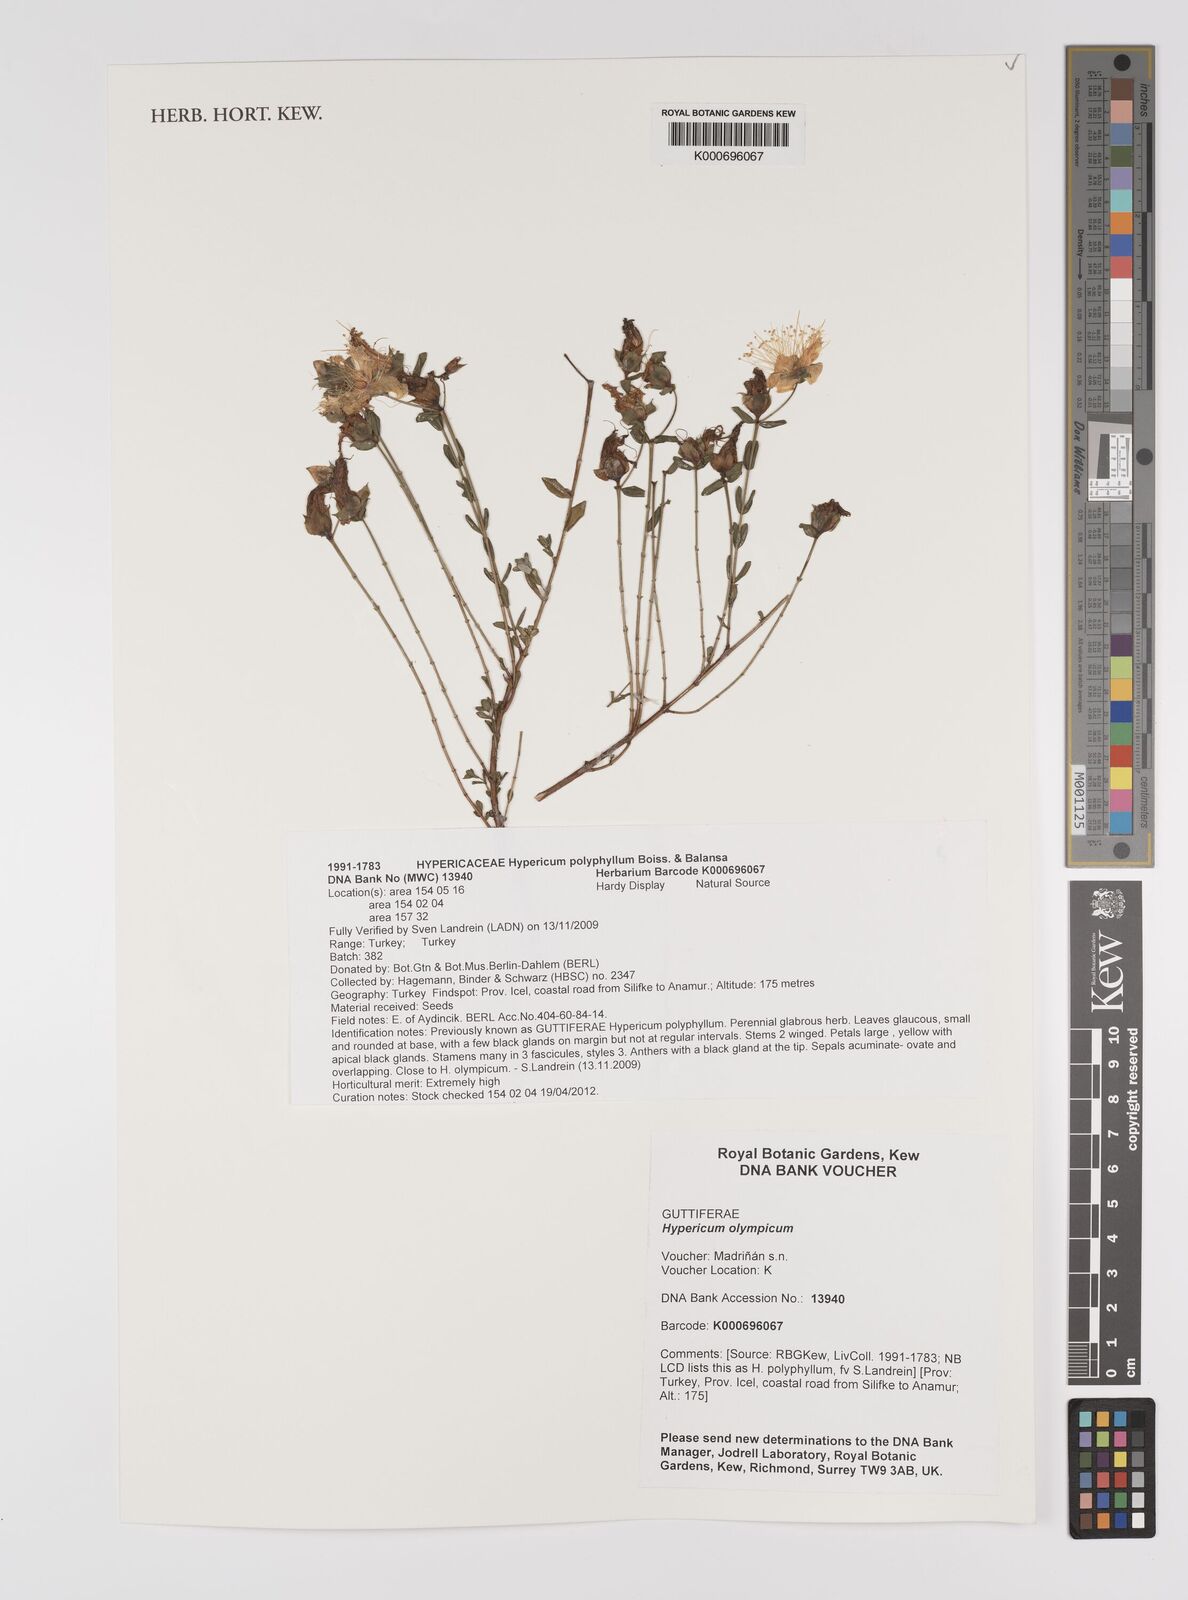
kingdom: Plantae
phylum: Tracheophyta
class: Magnoliopsida
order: Malpighiales
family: Hypericaceae
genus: Hypericum
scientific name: Hypericum olympicum
